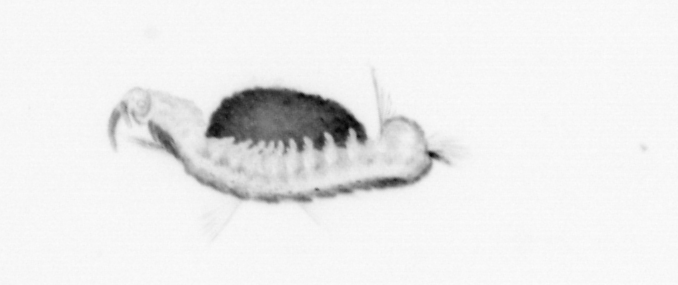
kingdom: Animalia
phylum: Annelida
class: Polychaeta
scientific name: Polychaeta
